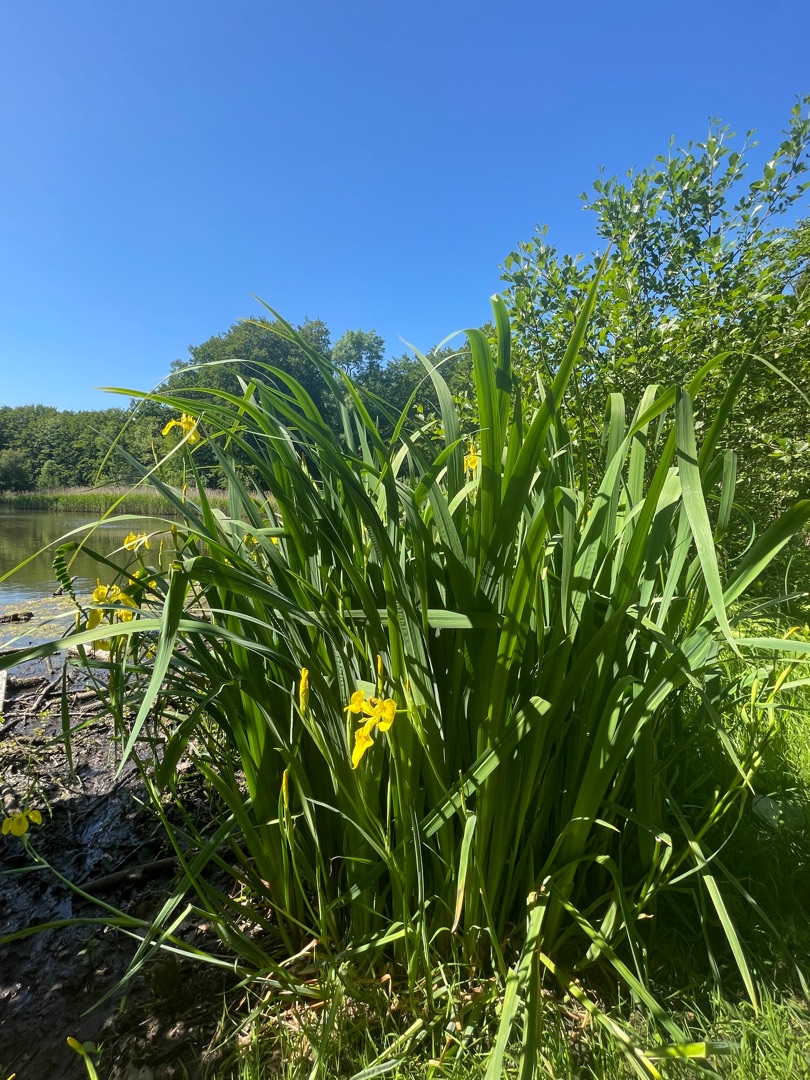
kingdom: Plantae
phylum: Tracheophyta
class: Liliopsida
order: Asparagales
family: Iridaceae
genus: Iris
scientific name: Iris pseudacorus
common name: Gul iris
